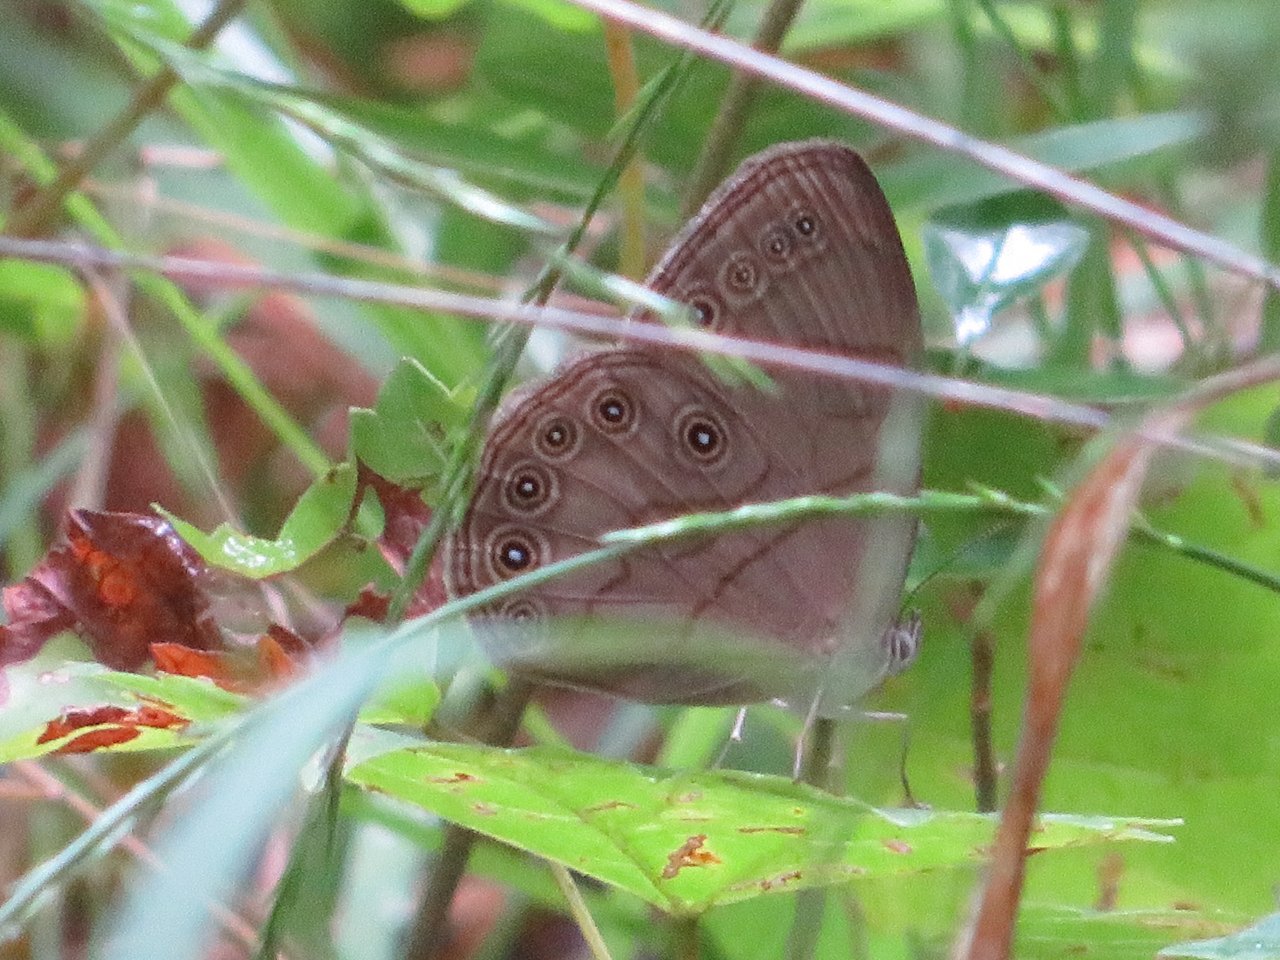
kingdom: Animalia
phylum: Arthropoda
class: Insecta
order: Lepidoptera
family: Nymphalidae
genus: Lethe
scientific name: Lethe eurydice
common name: Appalachian Eyed Brown
